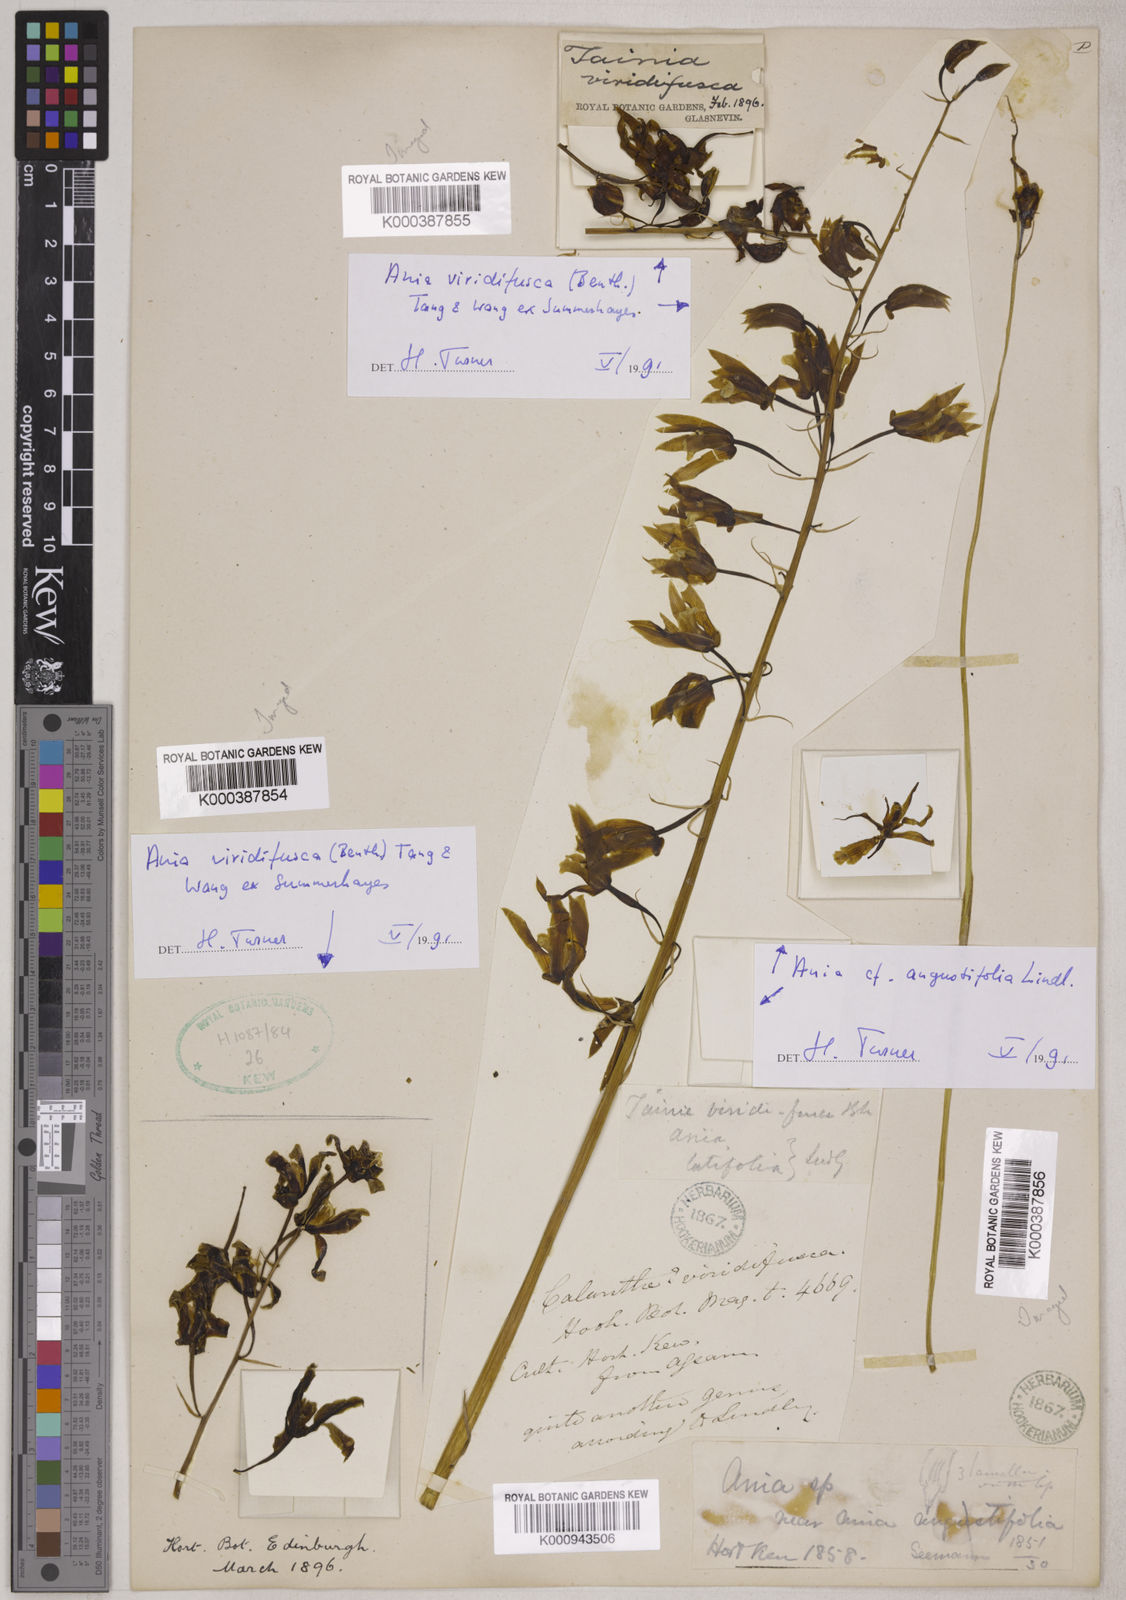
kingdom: Plantae
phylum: Tracheophyta
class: Liliopsida
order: Asparagales
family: Orchidaceae
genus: Ania
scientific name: Ania
